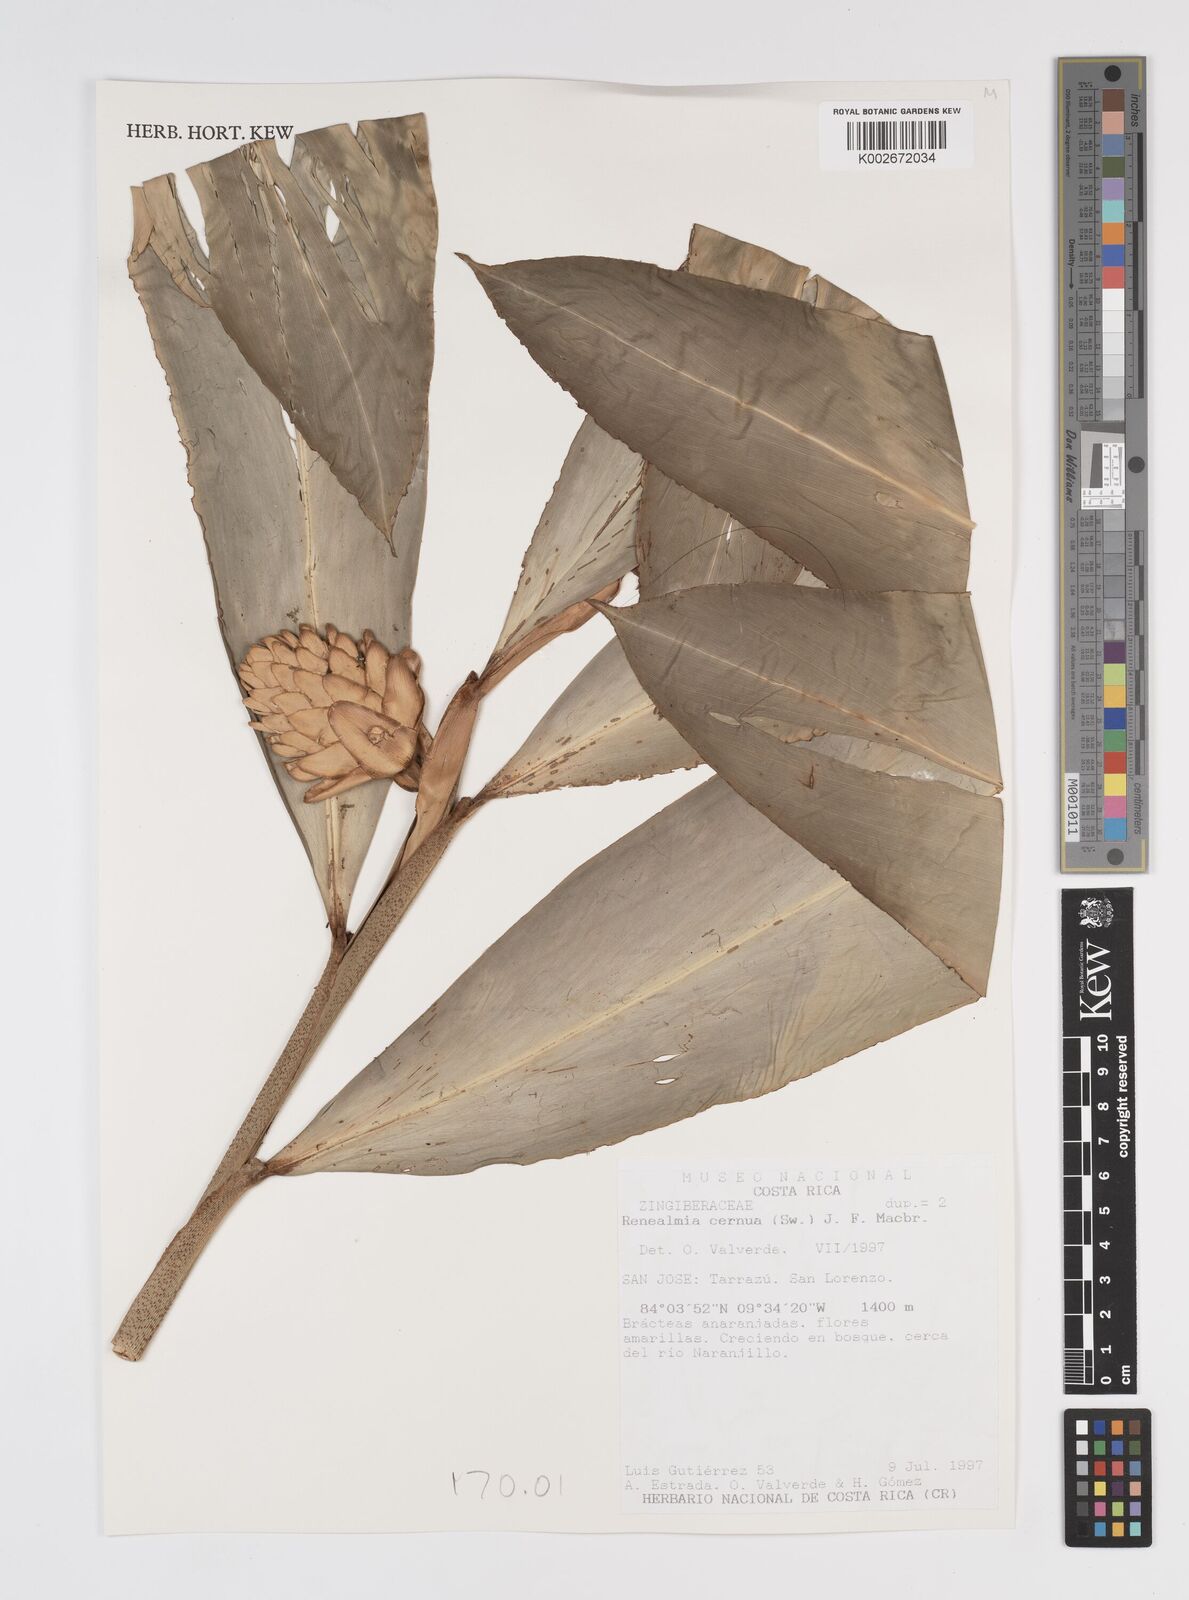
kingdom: Plantae
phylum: Tracheophyta
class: Liliopsida
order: Zingiberales
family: Zingiberaceae
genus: Renealmia
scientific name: Renealmia cernua
